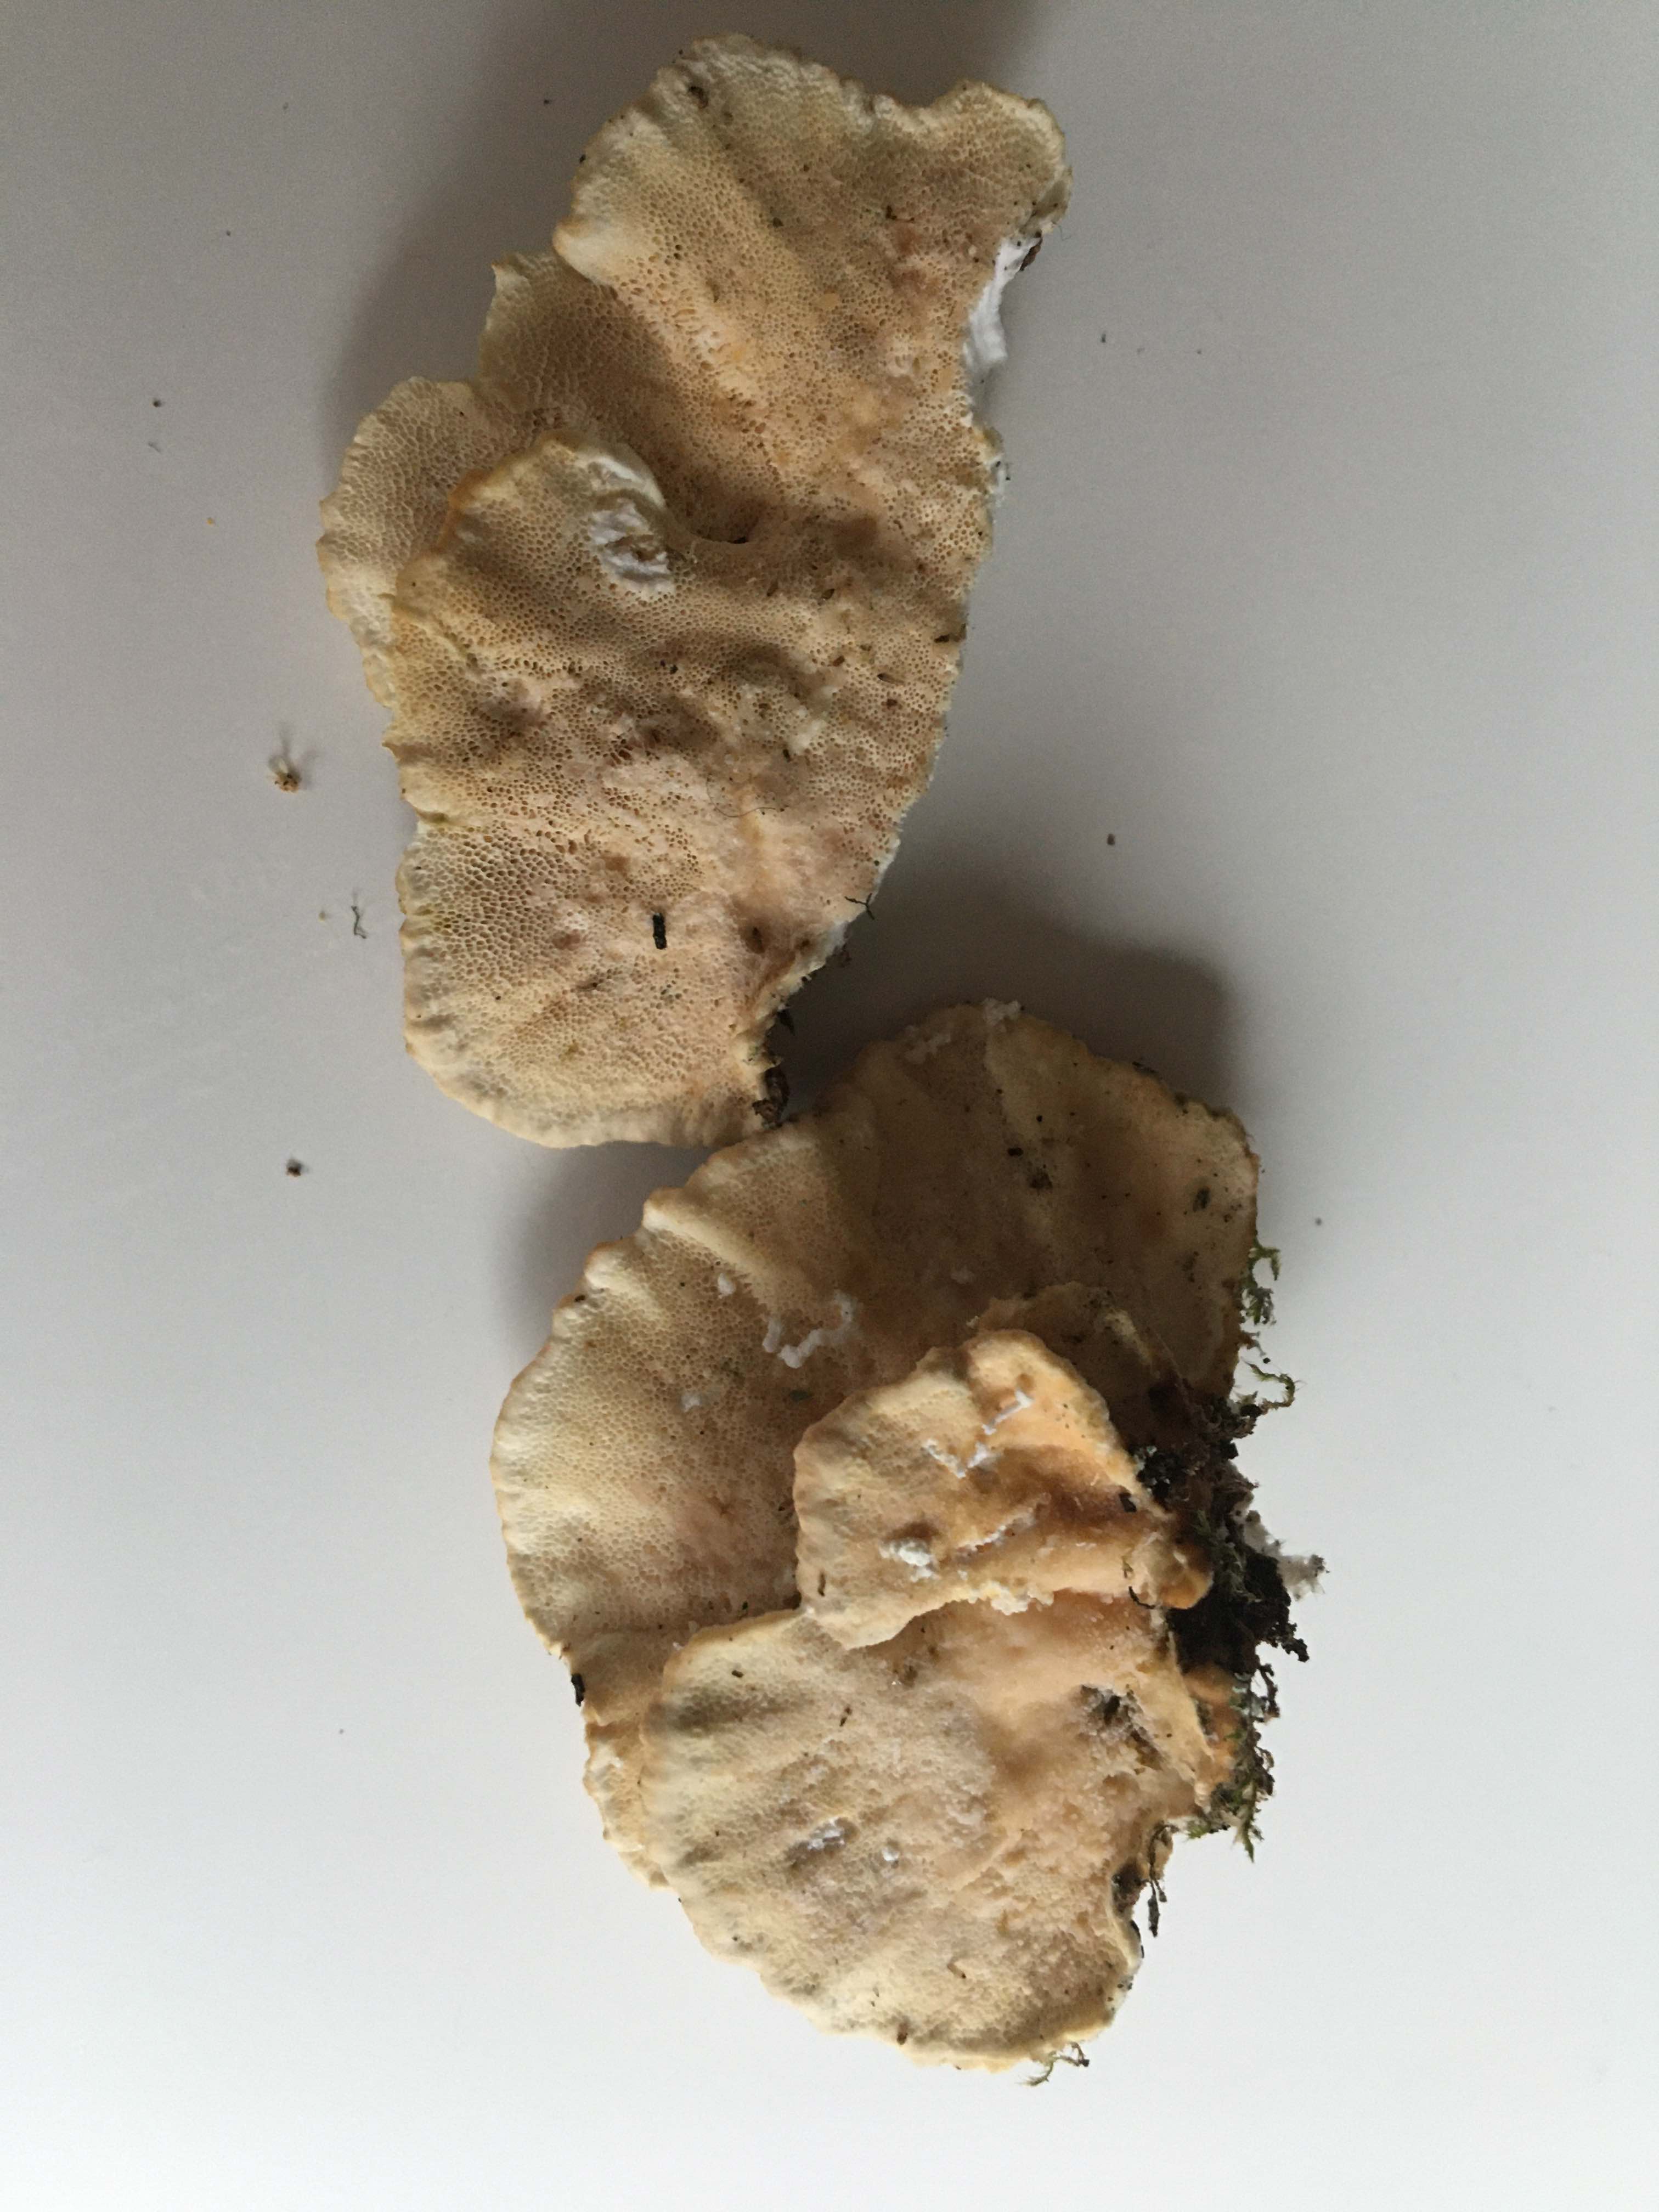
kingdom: Fungi
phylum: Basidiomycota
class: Agaricomycetes
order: Polyporales
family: Polyporaceae
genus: Trametes
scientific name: Trametes ochracea
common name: bæltet læderporesvamp
